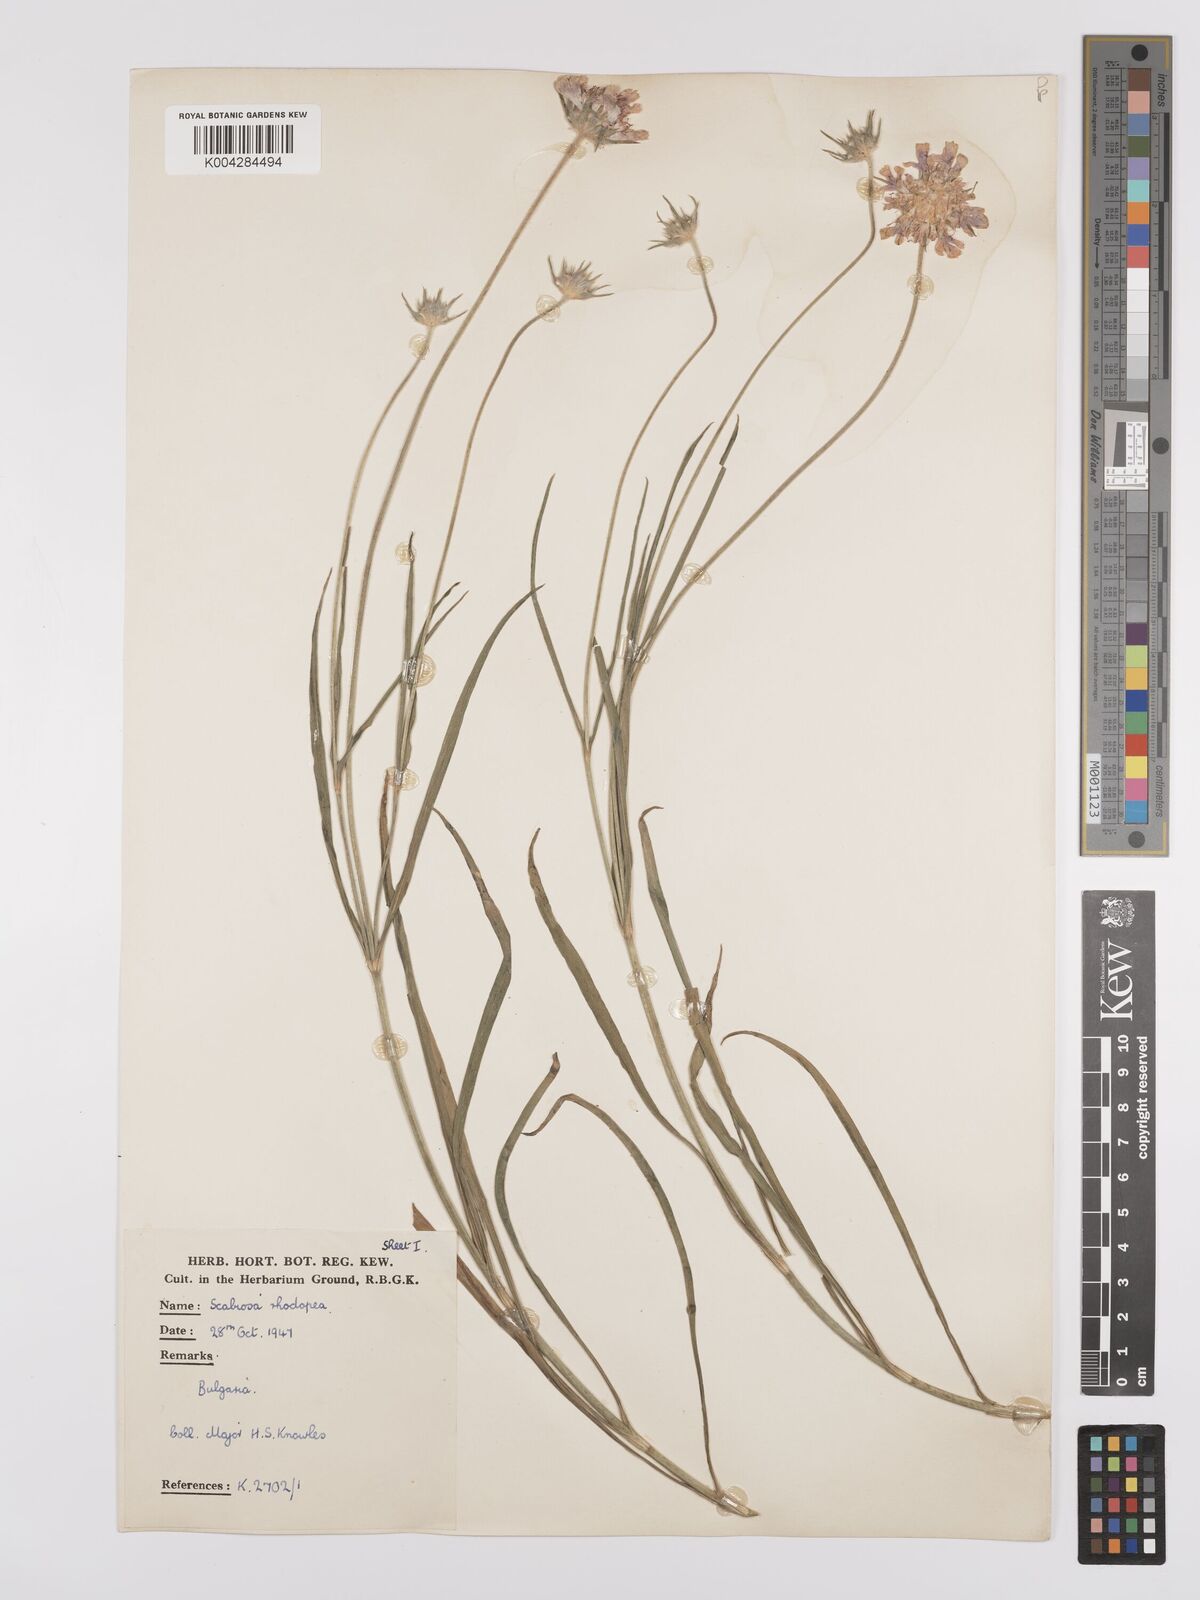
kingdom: Plantae
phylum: Tracheophyta
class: Magnoliopsida
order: Dipsacales
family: Caprifoliaceae
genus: Scabiosa
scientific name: Scabiosa ochroleuca
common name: Cream pincushions
